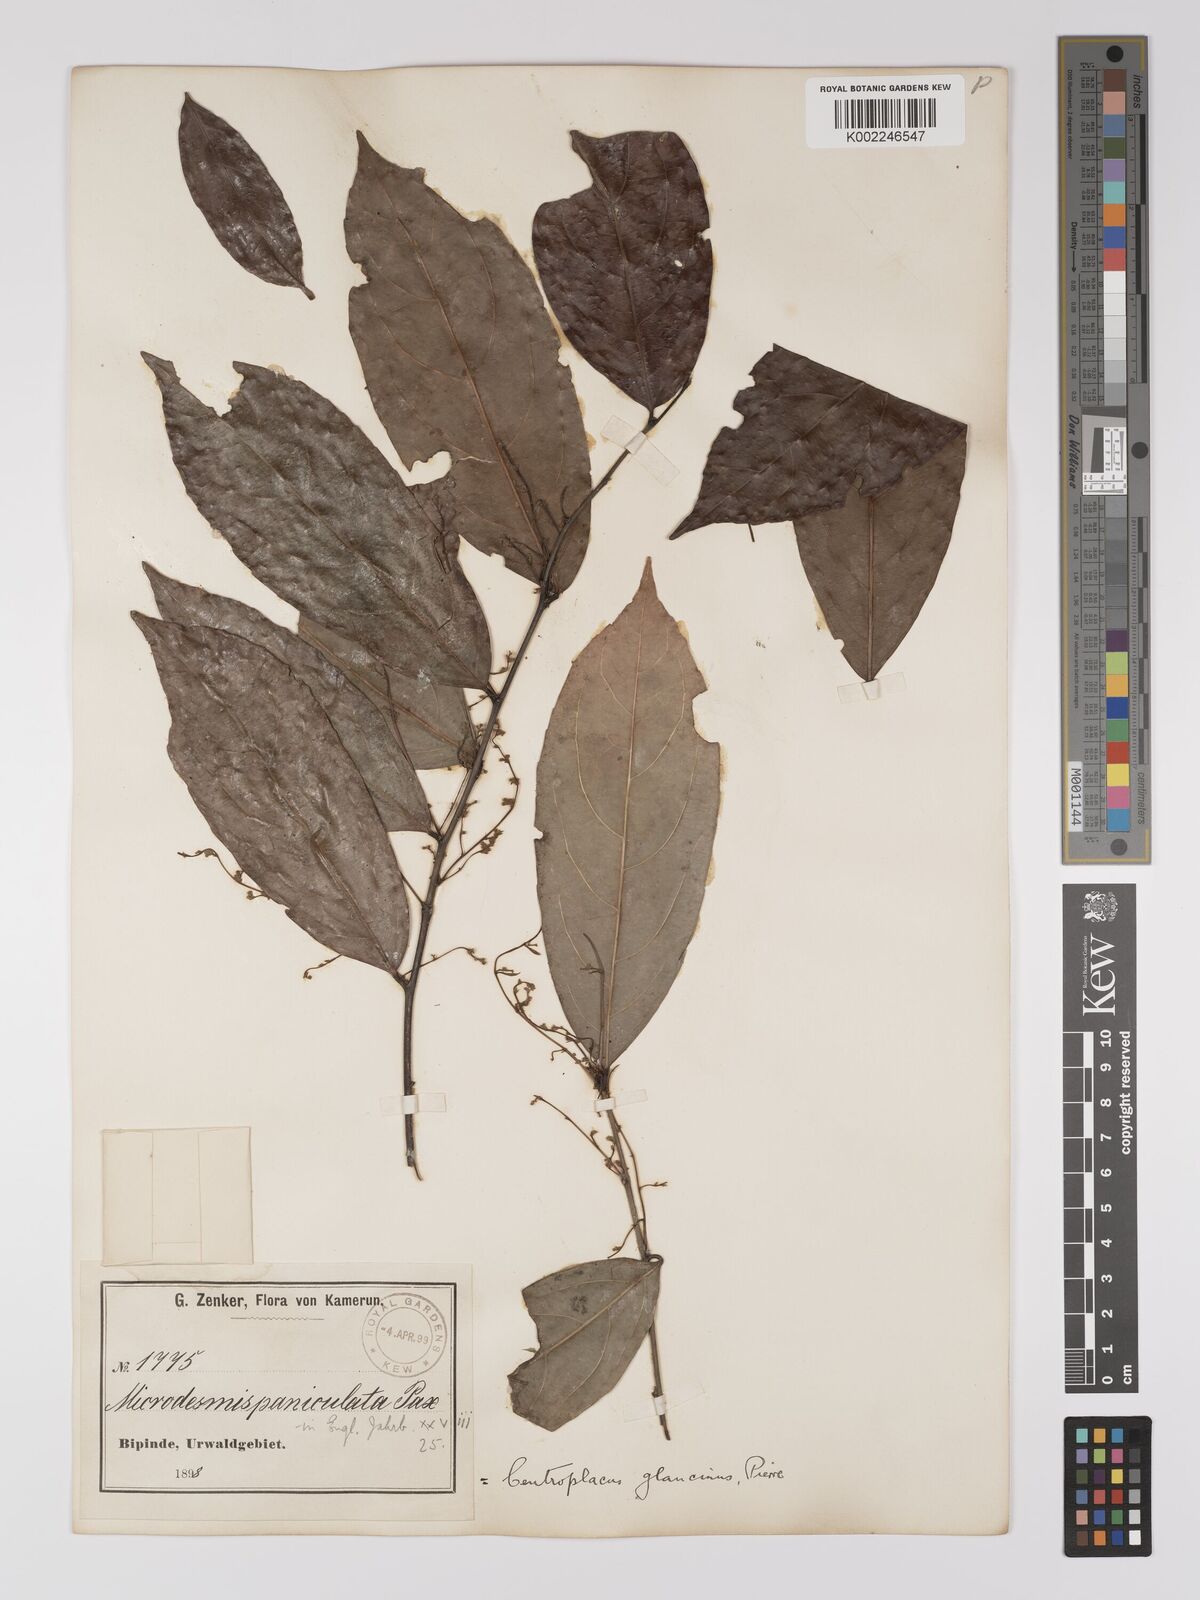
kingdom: Plantae
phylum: Tracheophyta
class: Magnoliopsida
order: Malpighiales
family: Centroplacaceae
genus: Centroplacus
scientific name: Centroplacus glaucinus
